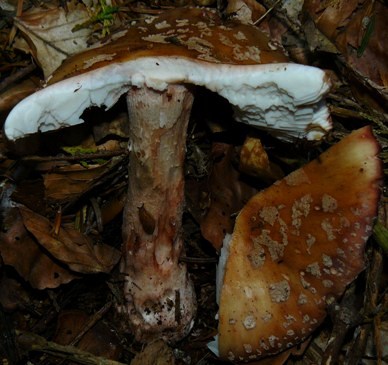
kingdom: Fungi
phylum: Basidiomycota
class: Agaricomycetes
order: Agaricales
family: Amanitaceae
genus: Amanita
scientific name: Amanita rubescens
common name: rødmende fluesvamp
